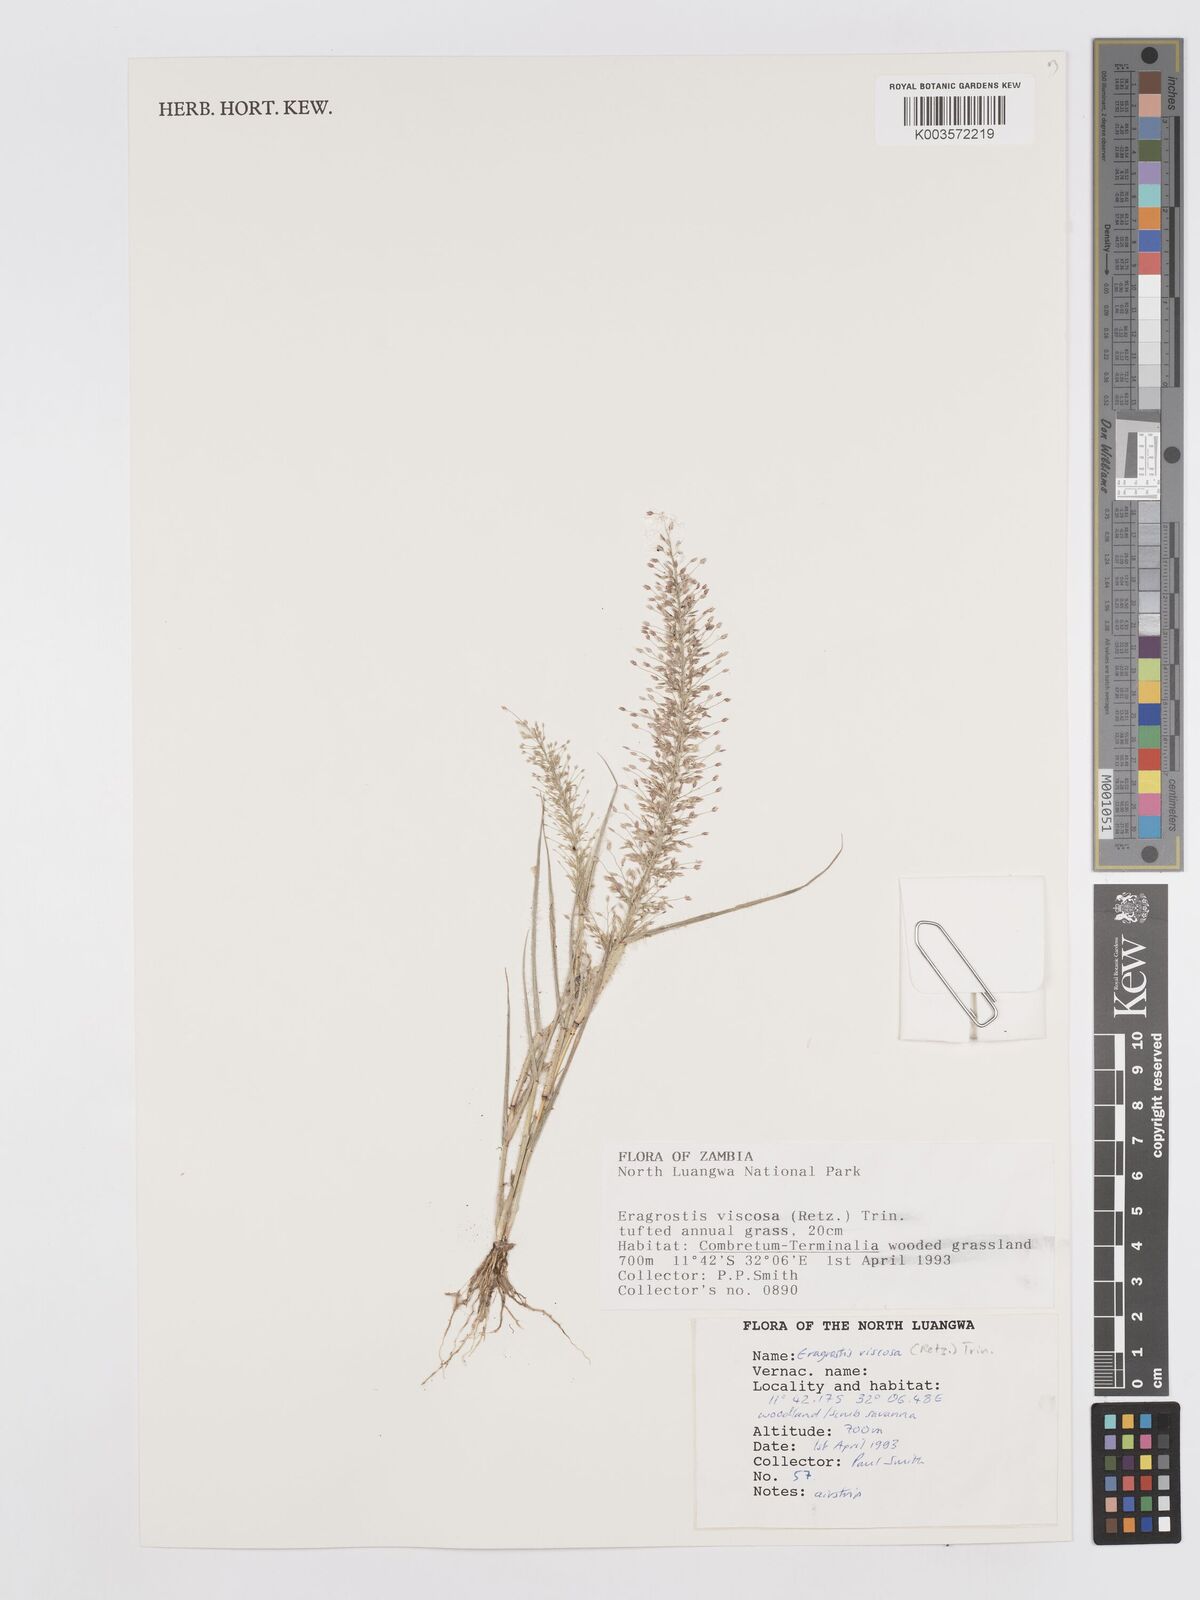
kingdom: Plantae
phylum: Tracheophyta
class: Liliopsida
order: Poales
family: Poaceae
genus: Eragrostis
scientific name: Eragrostis
